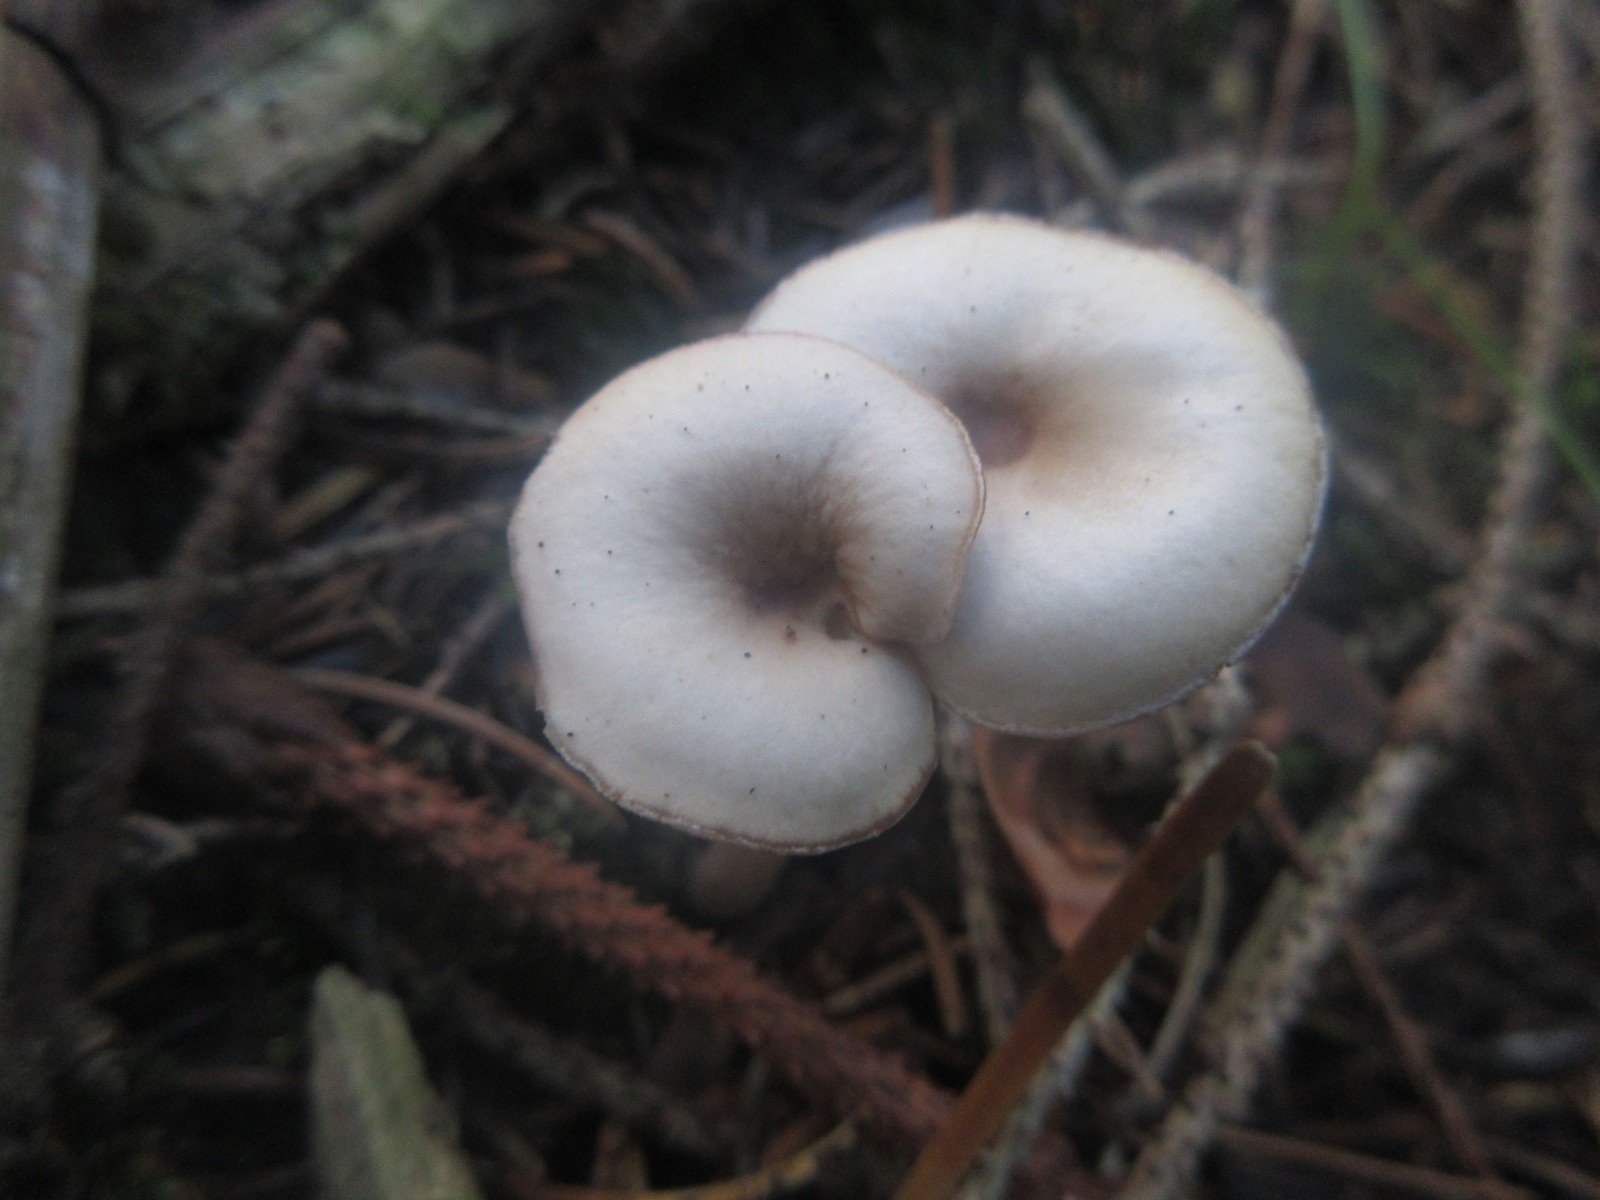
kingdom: Fungi
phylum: Basidiomycota
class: Agaricomycetes
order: Agaricales
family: Tricholomataceae
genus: Clitocybe
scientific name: Clitocybe fragrans
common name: vellugtende tragthat
